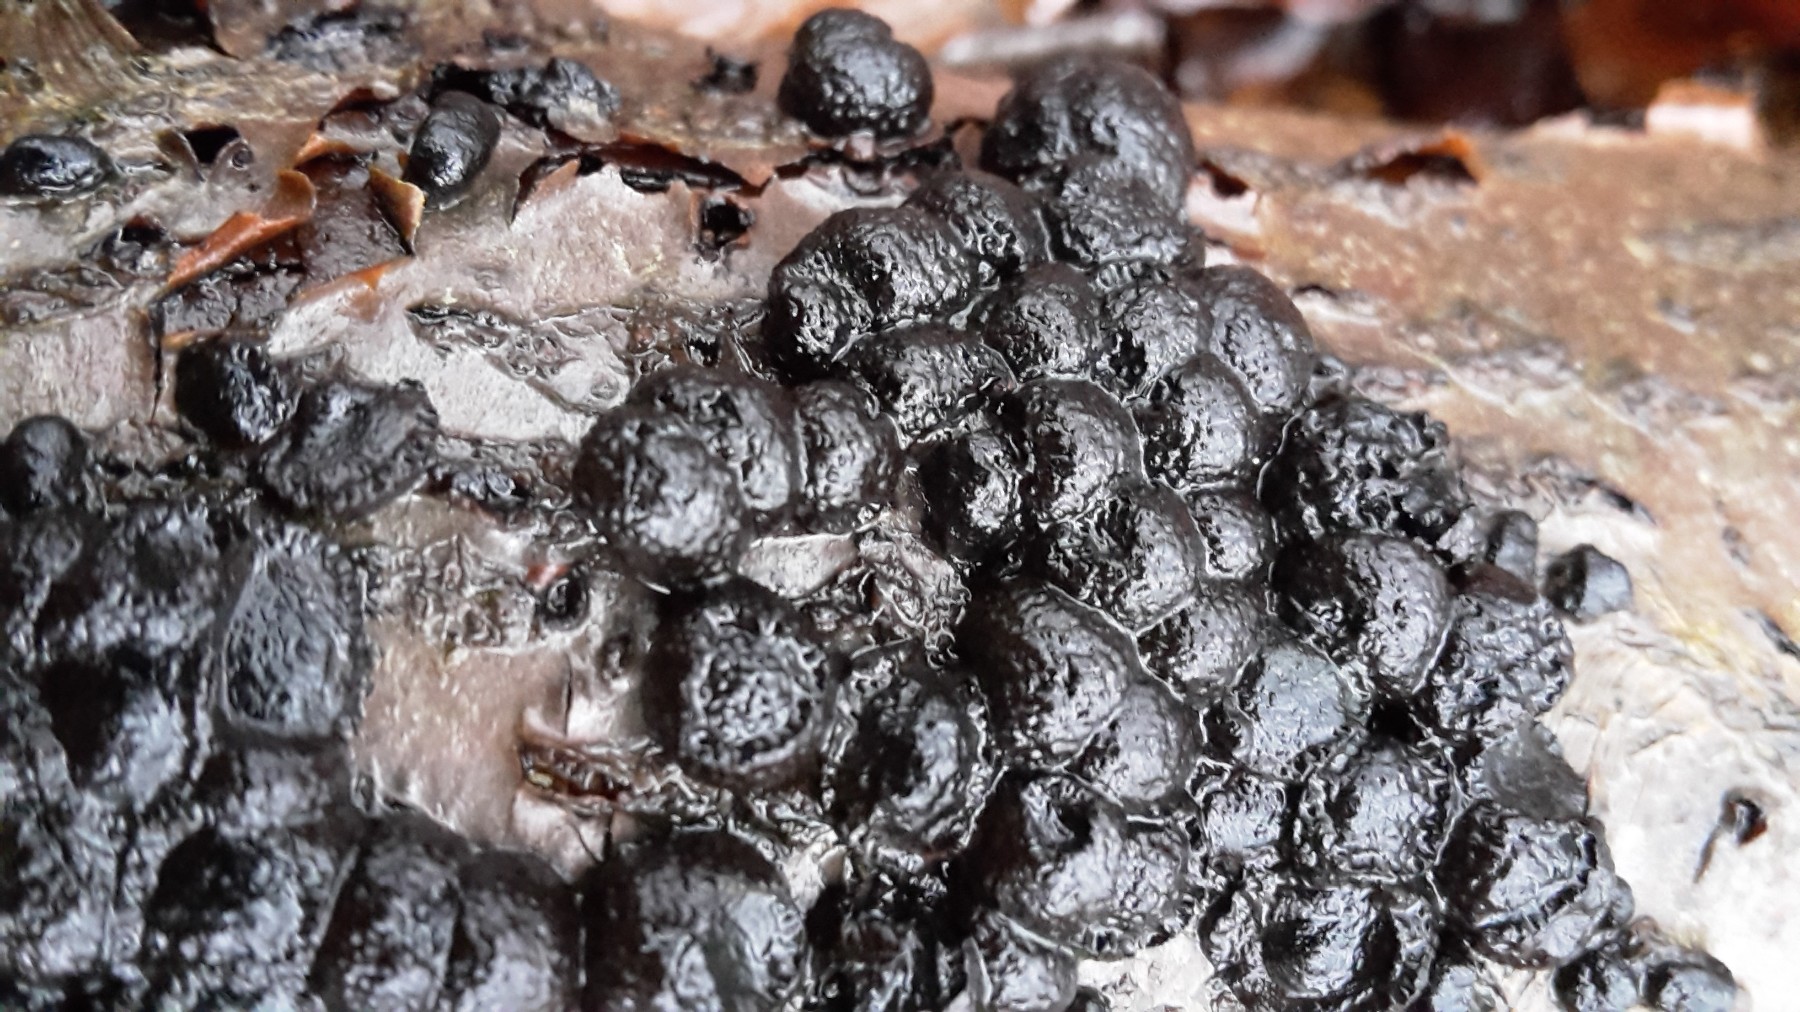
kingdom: Fungi
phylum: Ascomycota
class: Sordariomycetes
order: Xylariales
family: Hypoxylaceae
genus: Jackrogersella
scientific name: Jackrogersella cohaerens
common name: sammenflydende kulbær
